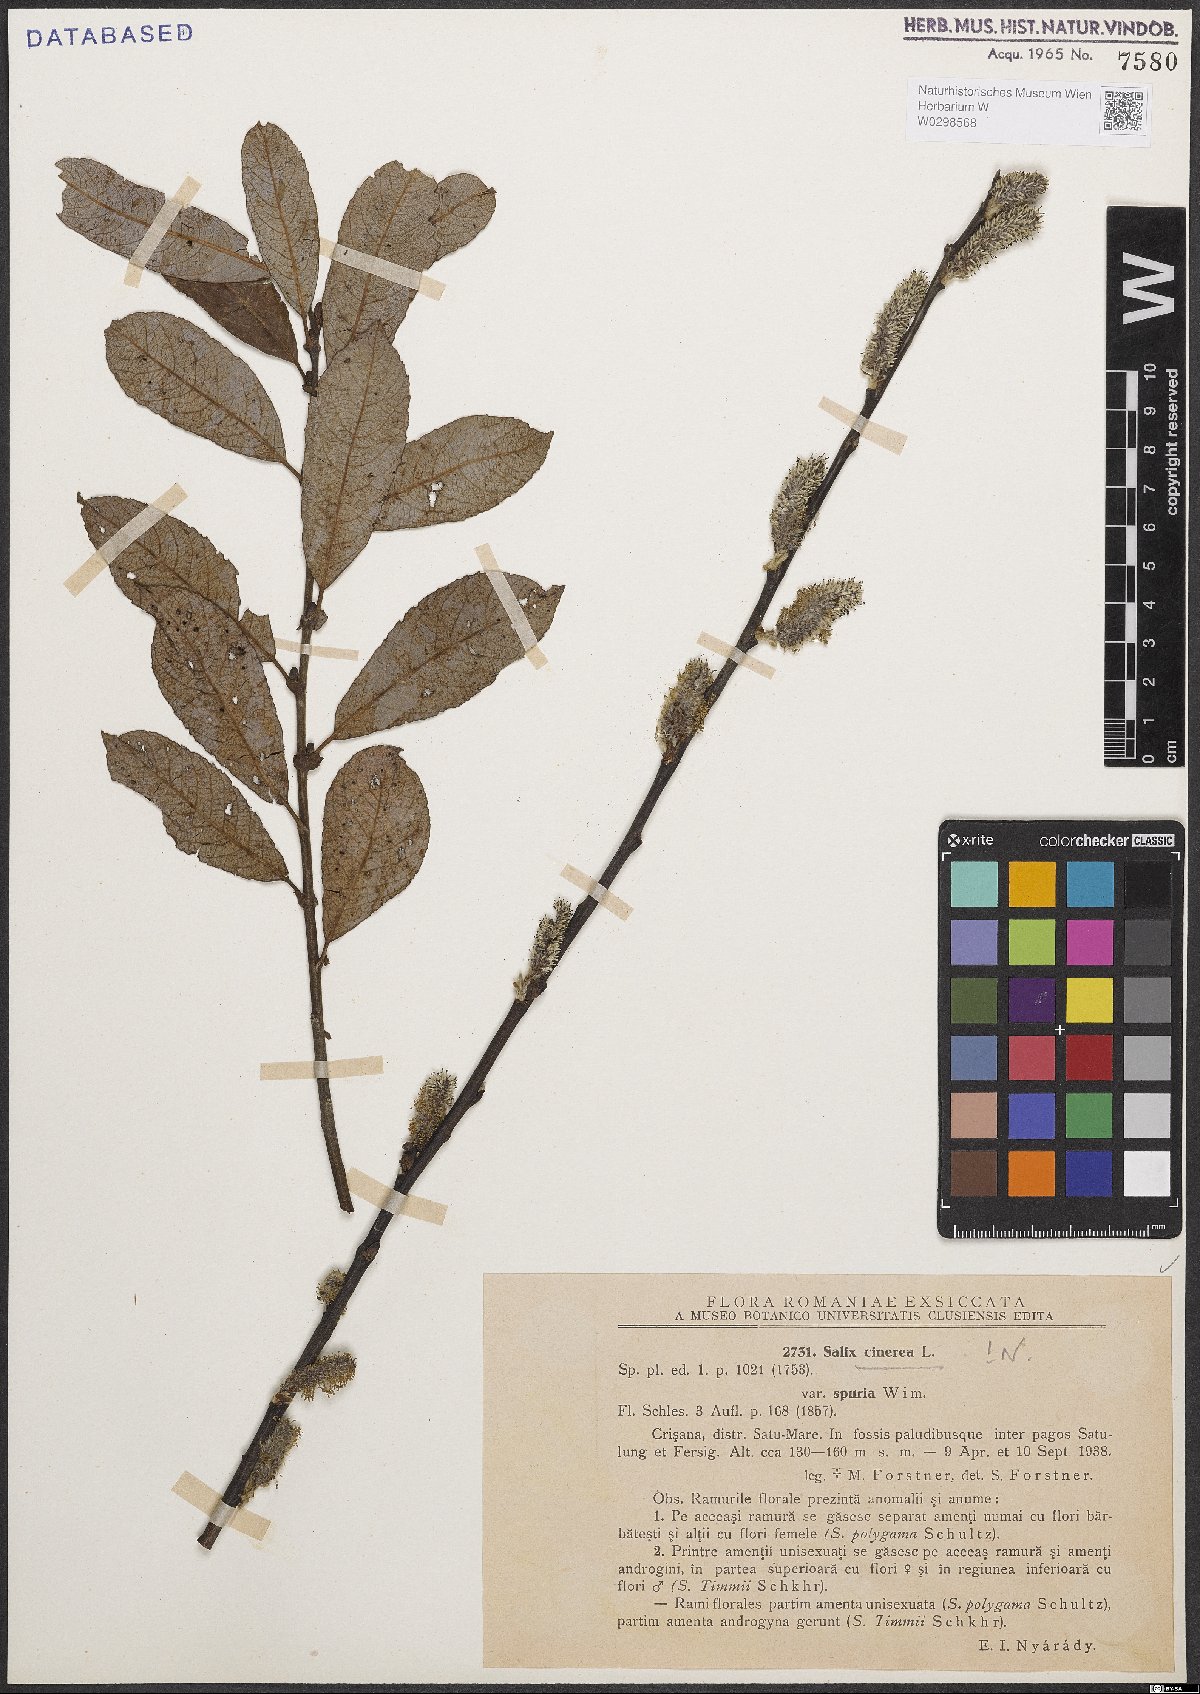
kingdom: Plantae
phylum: Tracheophyta
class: Magnoliopsida
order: Malpighiales
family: Salicaceae
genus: Salix
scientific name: Salix cinerea
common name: Common sallow
